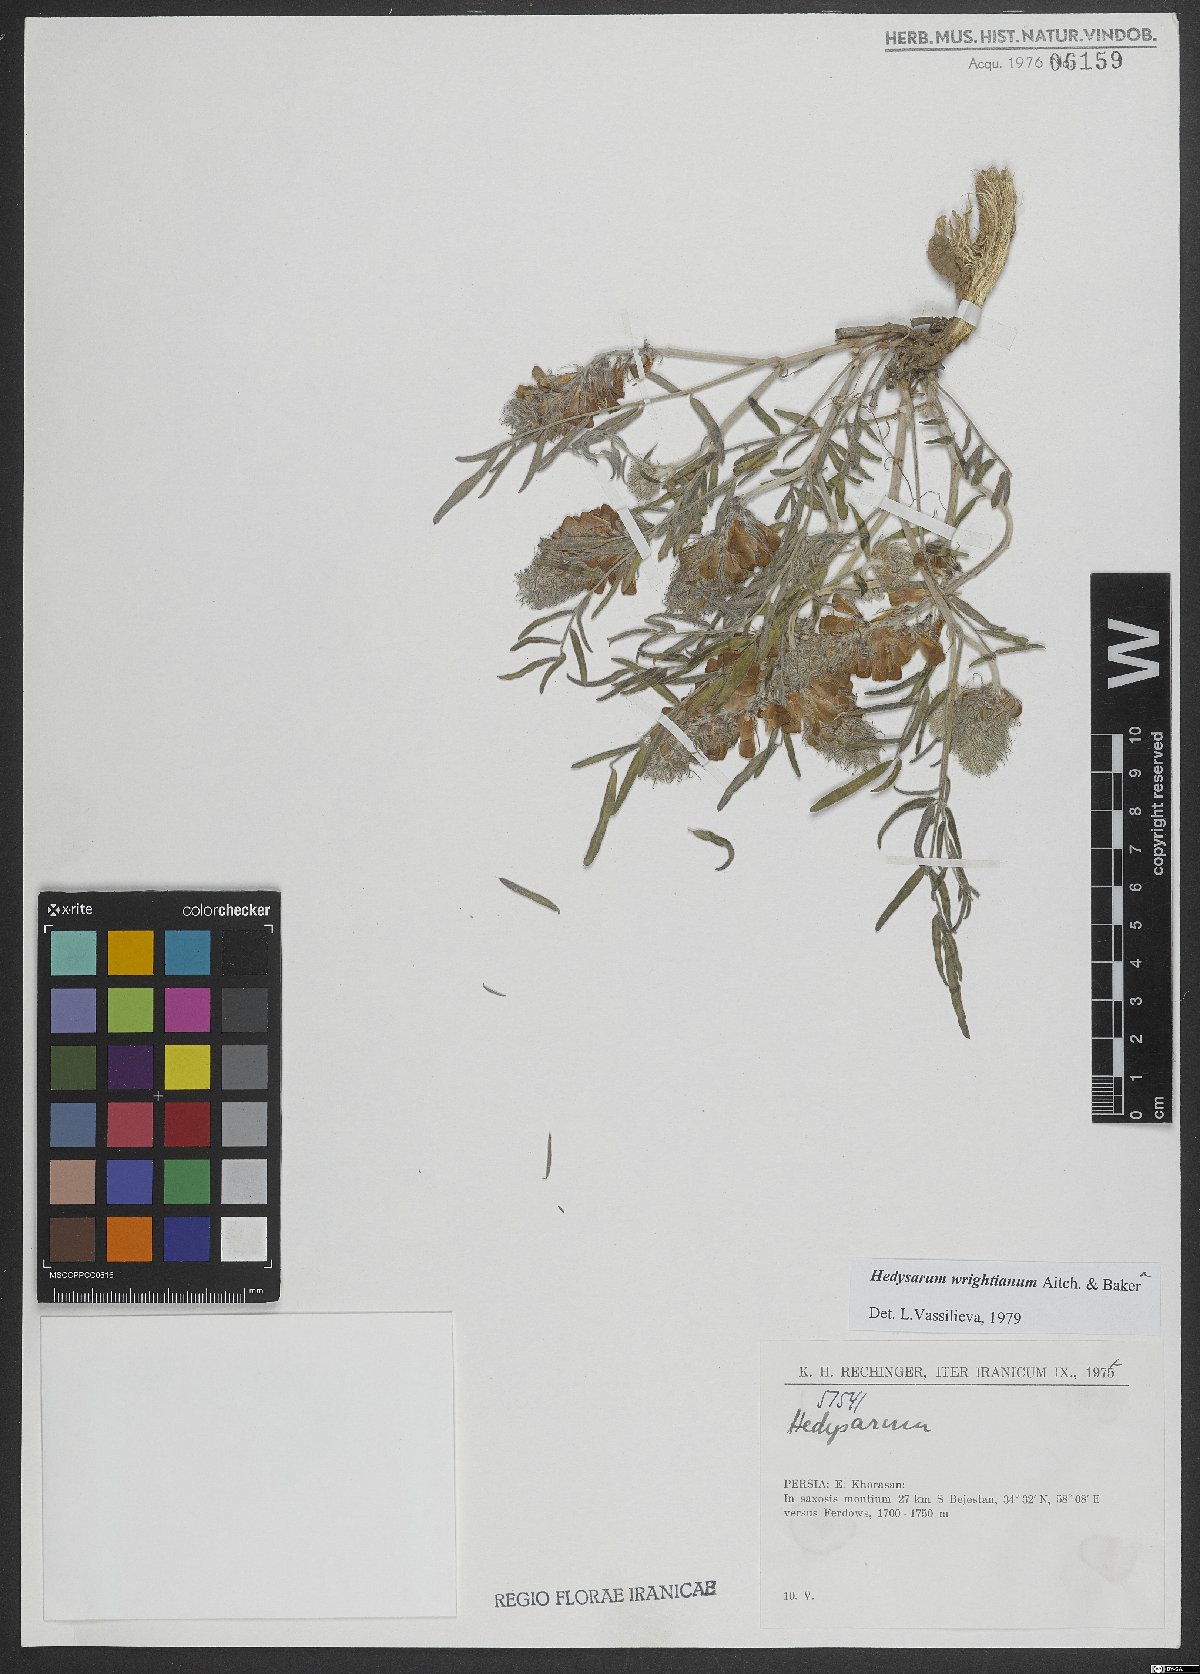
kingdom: Plantae
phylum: Tracheophyta
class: Magnoliopsida
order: Fabales
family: Fabaceae
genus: Hedysarum
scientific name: Hedysarum micropterum
